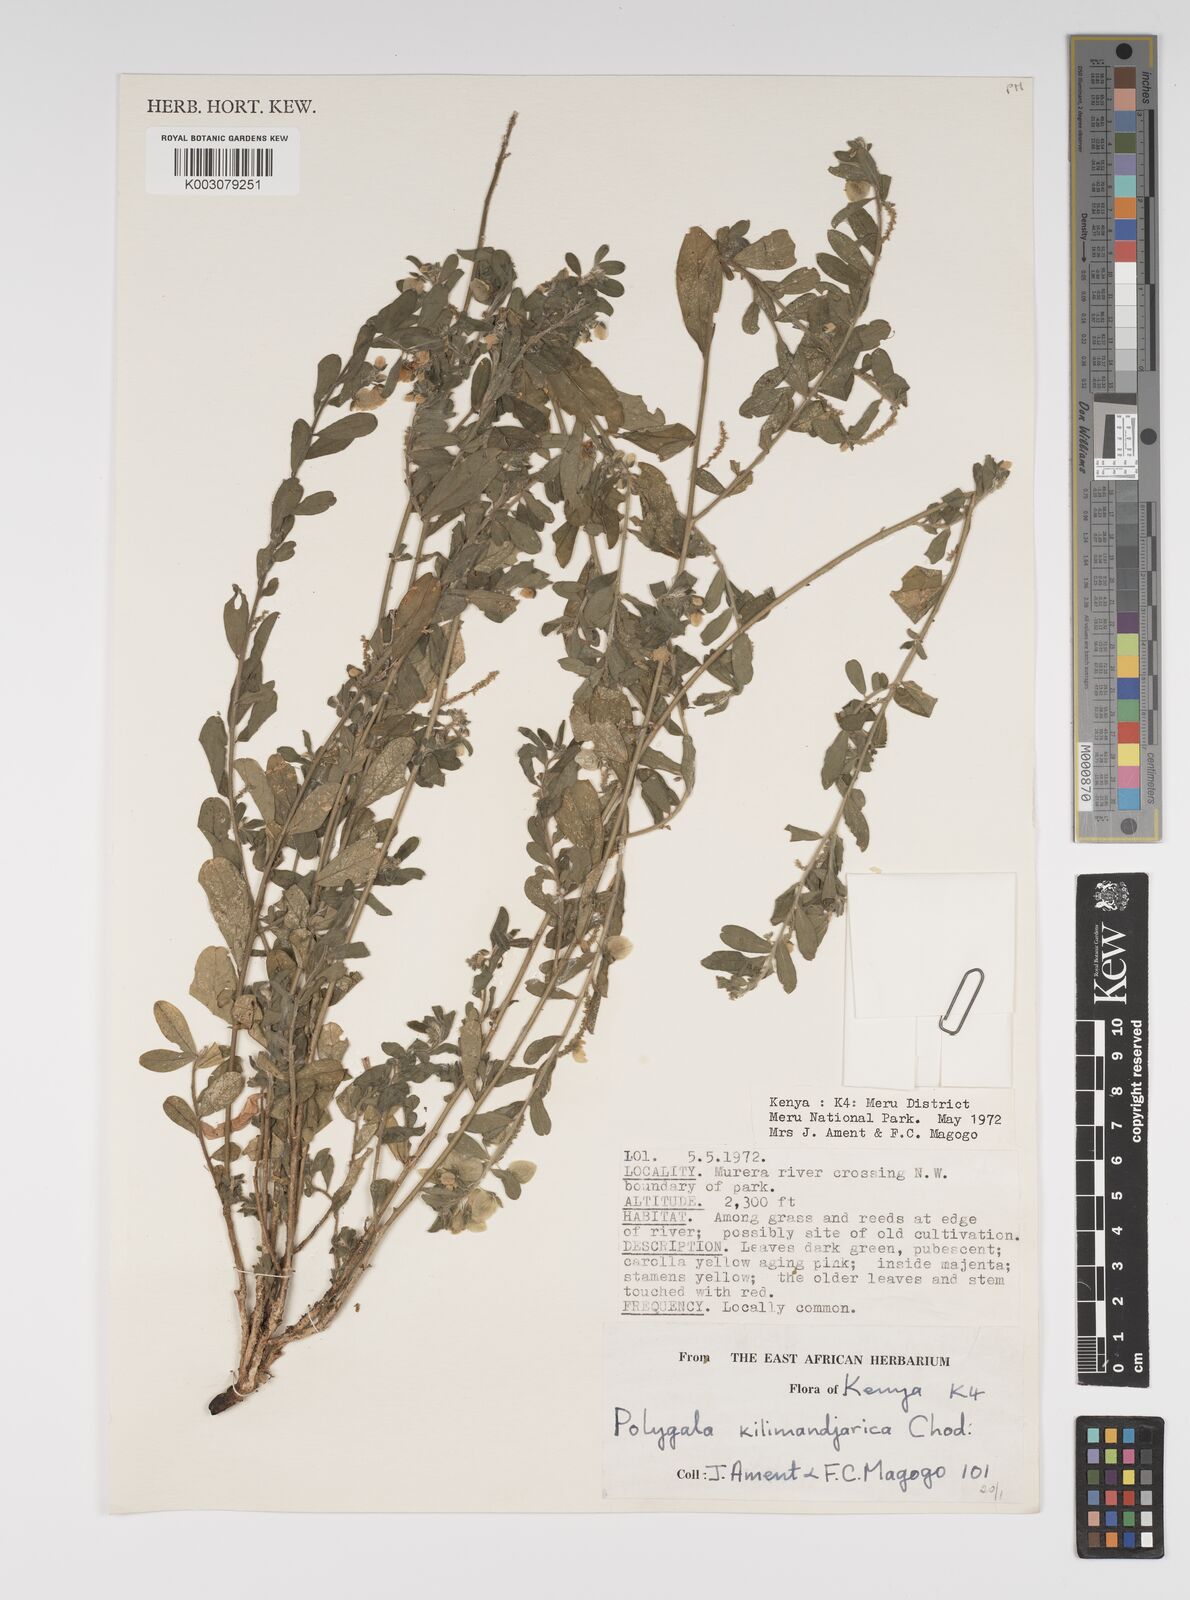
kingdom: Plantae
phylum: Tracheophyta
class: Magnoliopsida
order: Fabales
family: Polygalaceae
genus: Polygala
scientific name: Polygala kilimandjarica
